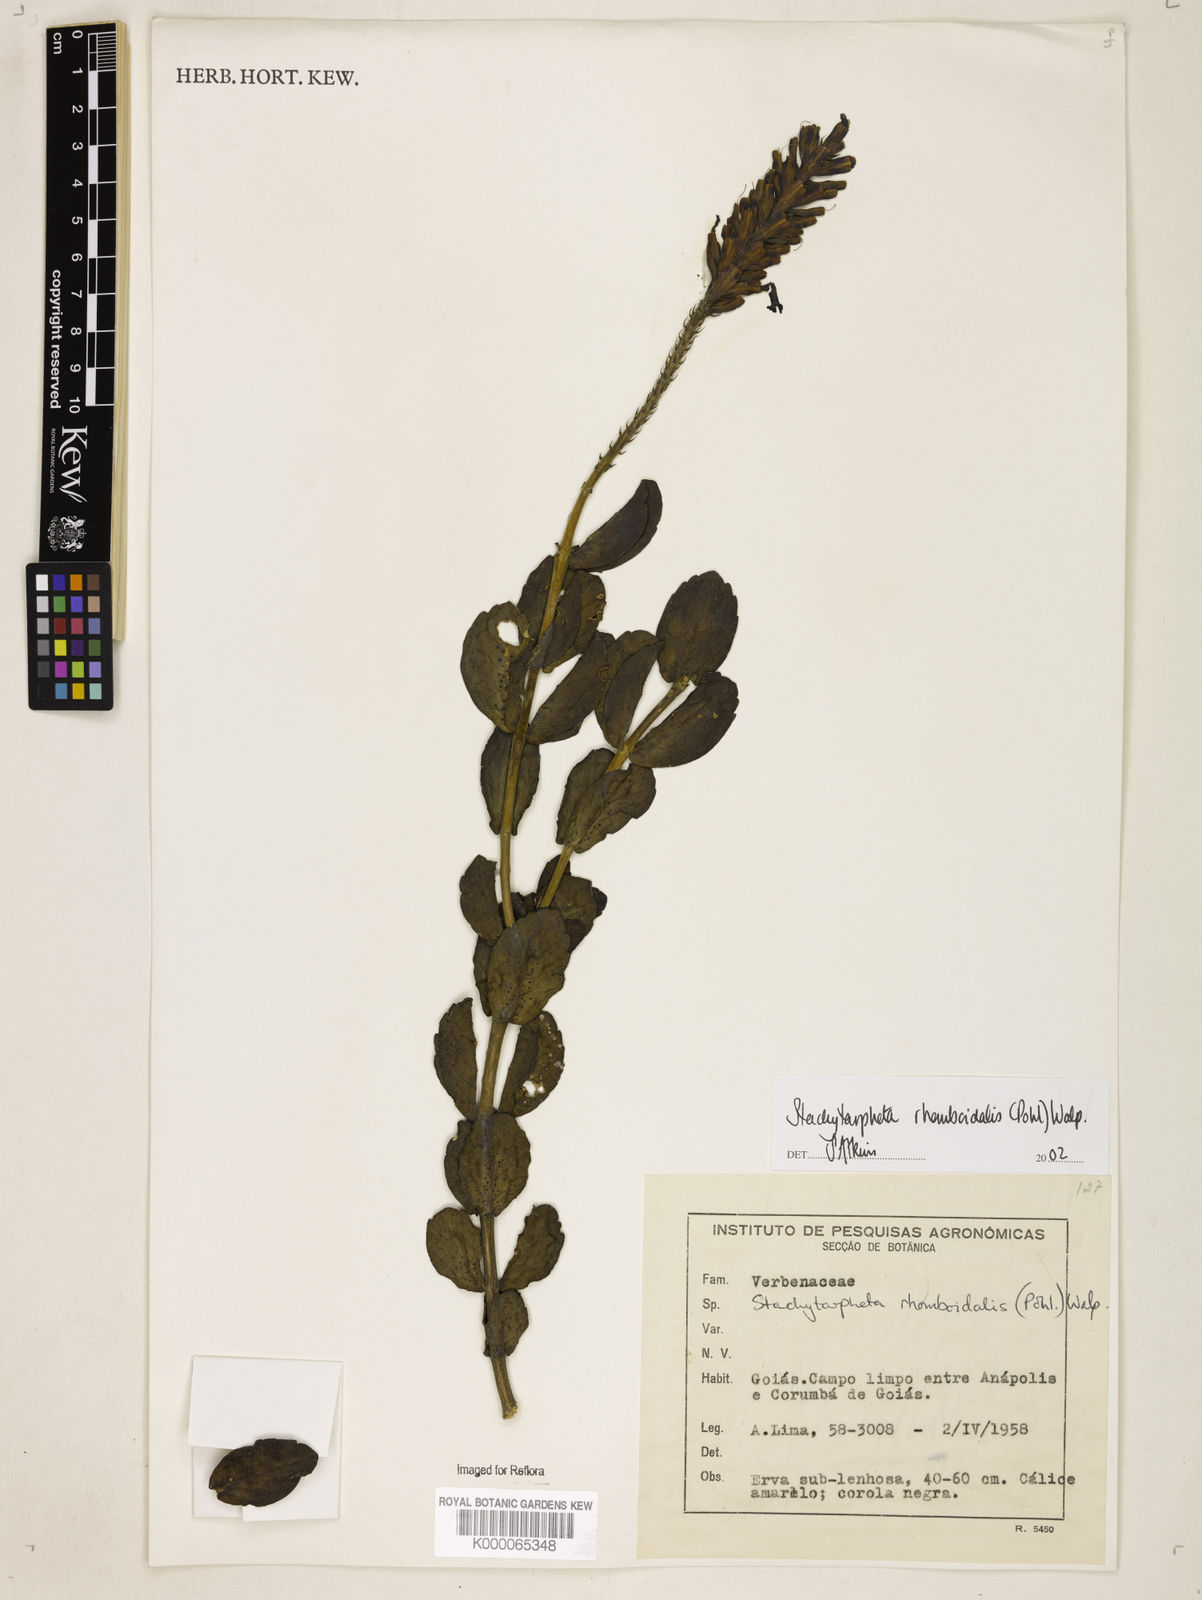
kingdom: Plantae
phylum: Tracheophyta
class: Magnoliopsida
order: Lamiales
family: Verbenaceae
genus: Stachytarpheta
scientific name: Stachytarpheta rhomboidalis
